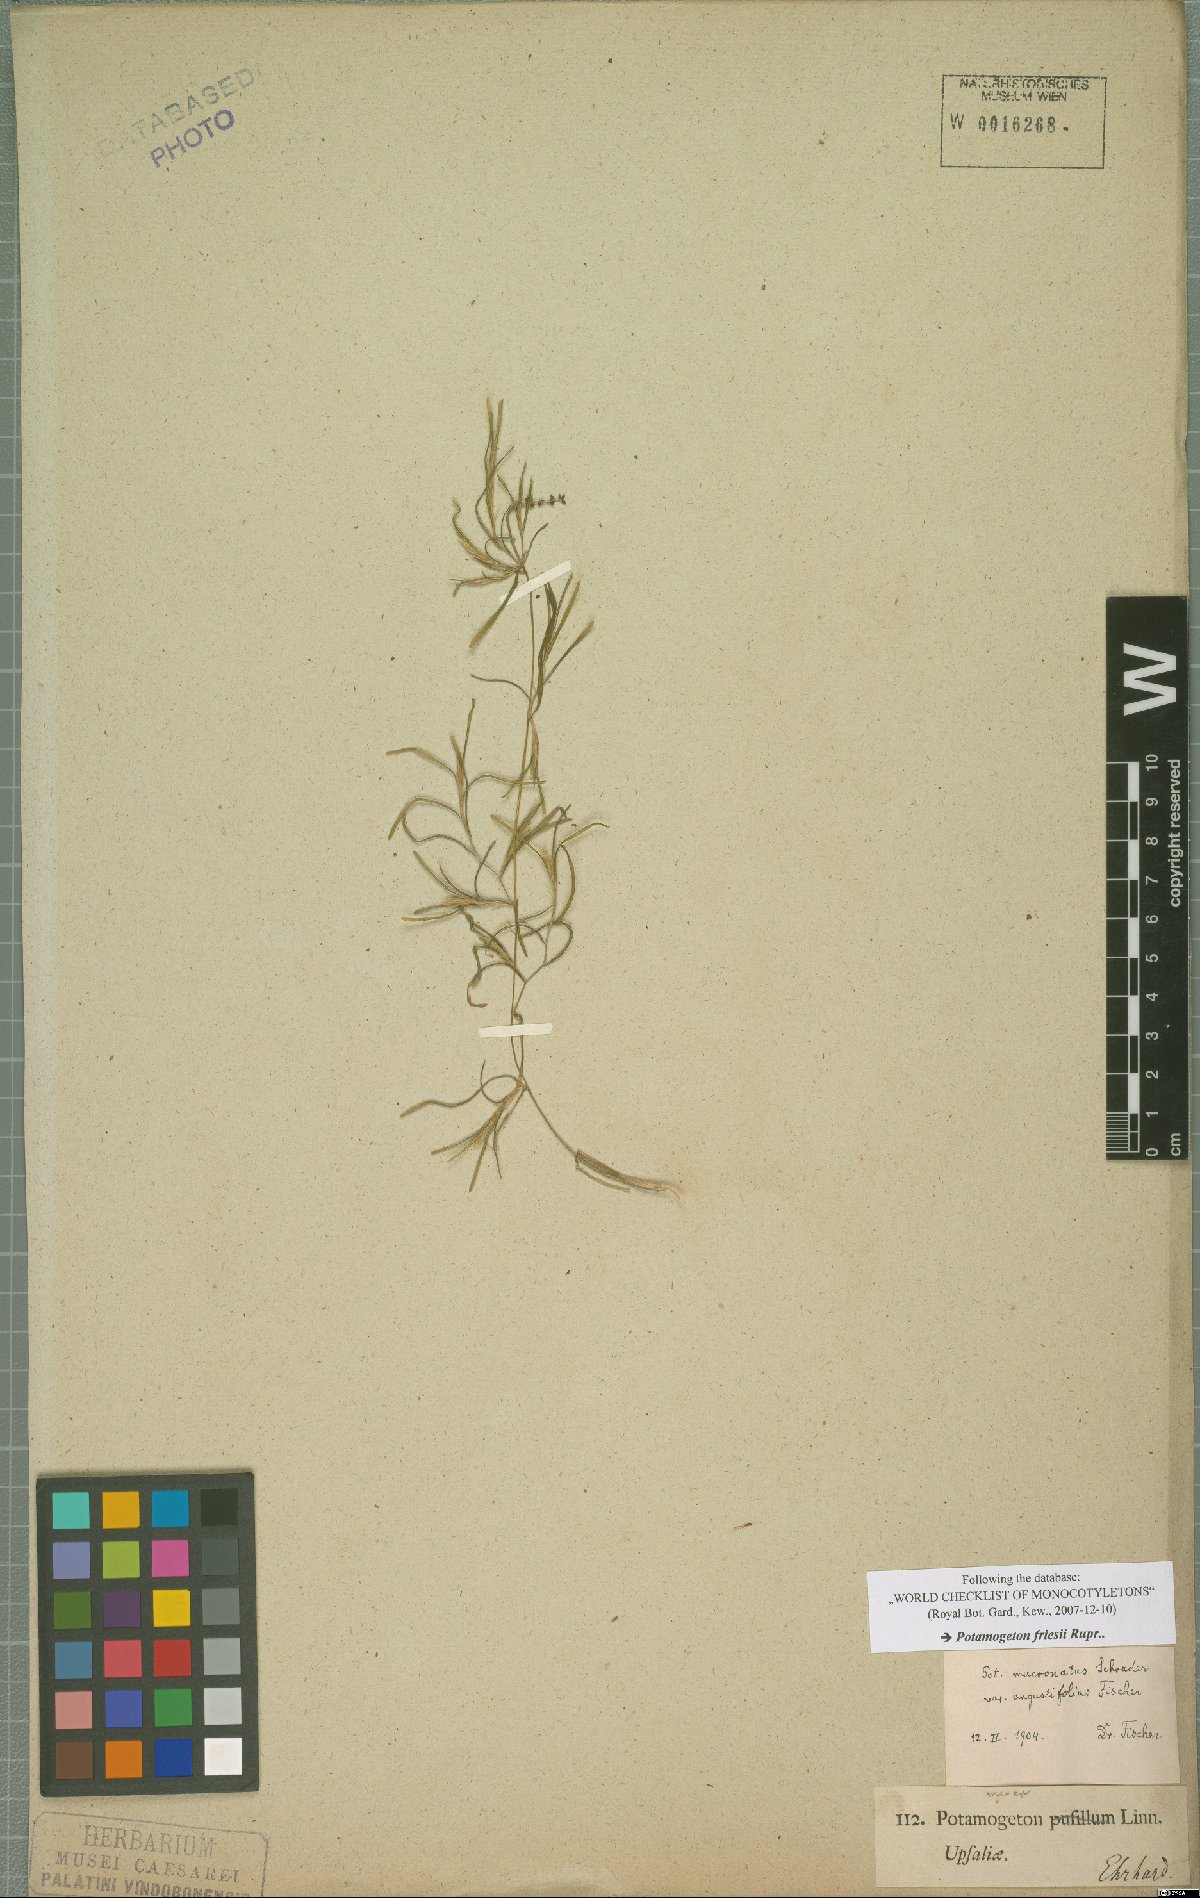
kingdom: Plantae
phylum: Tracheophyta
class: Liliopsida
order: Alismatales
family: Potamogetonaceae
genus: Potamogeton
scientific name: Potamogeton friesii
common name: Flat-stalked pondweed
